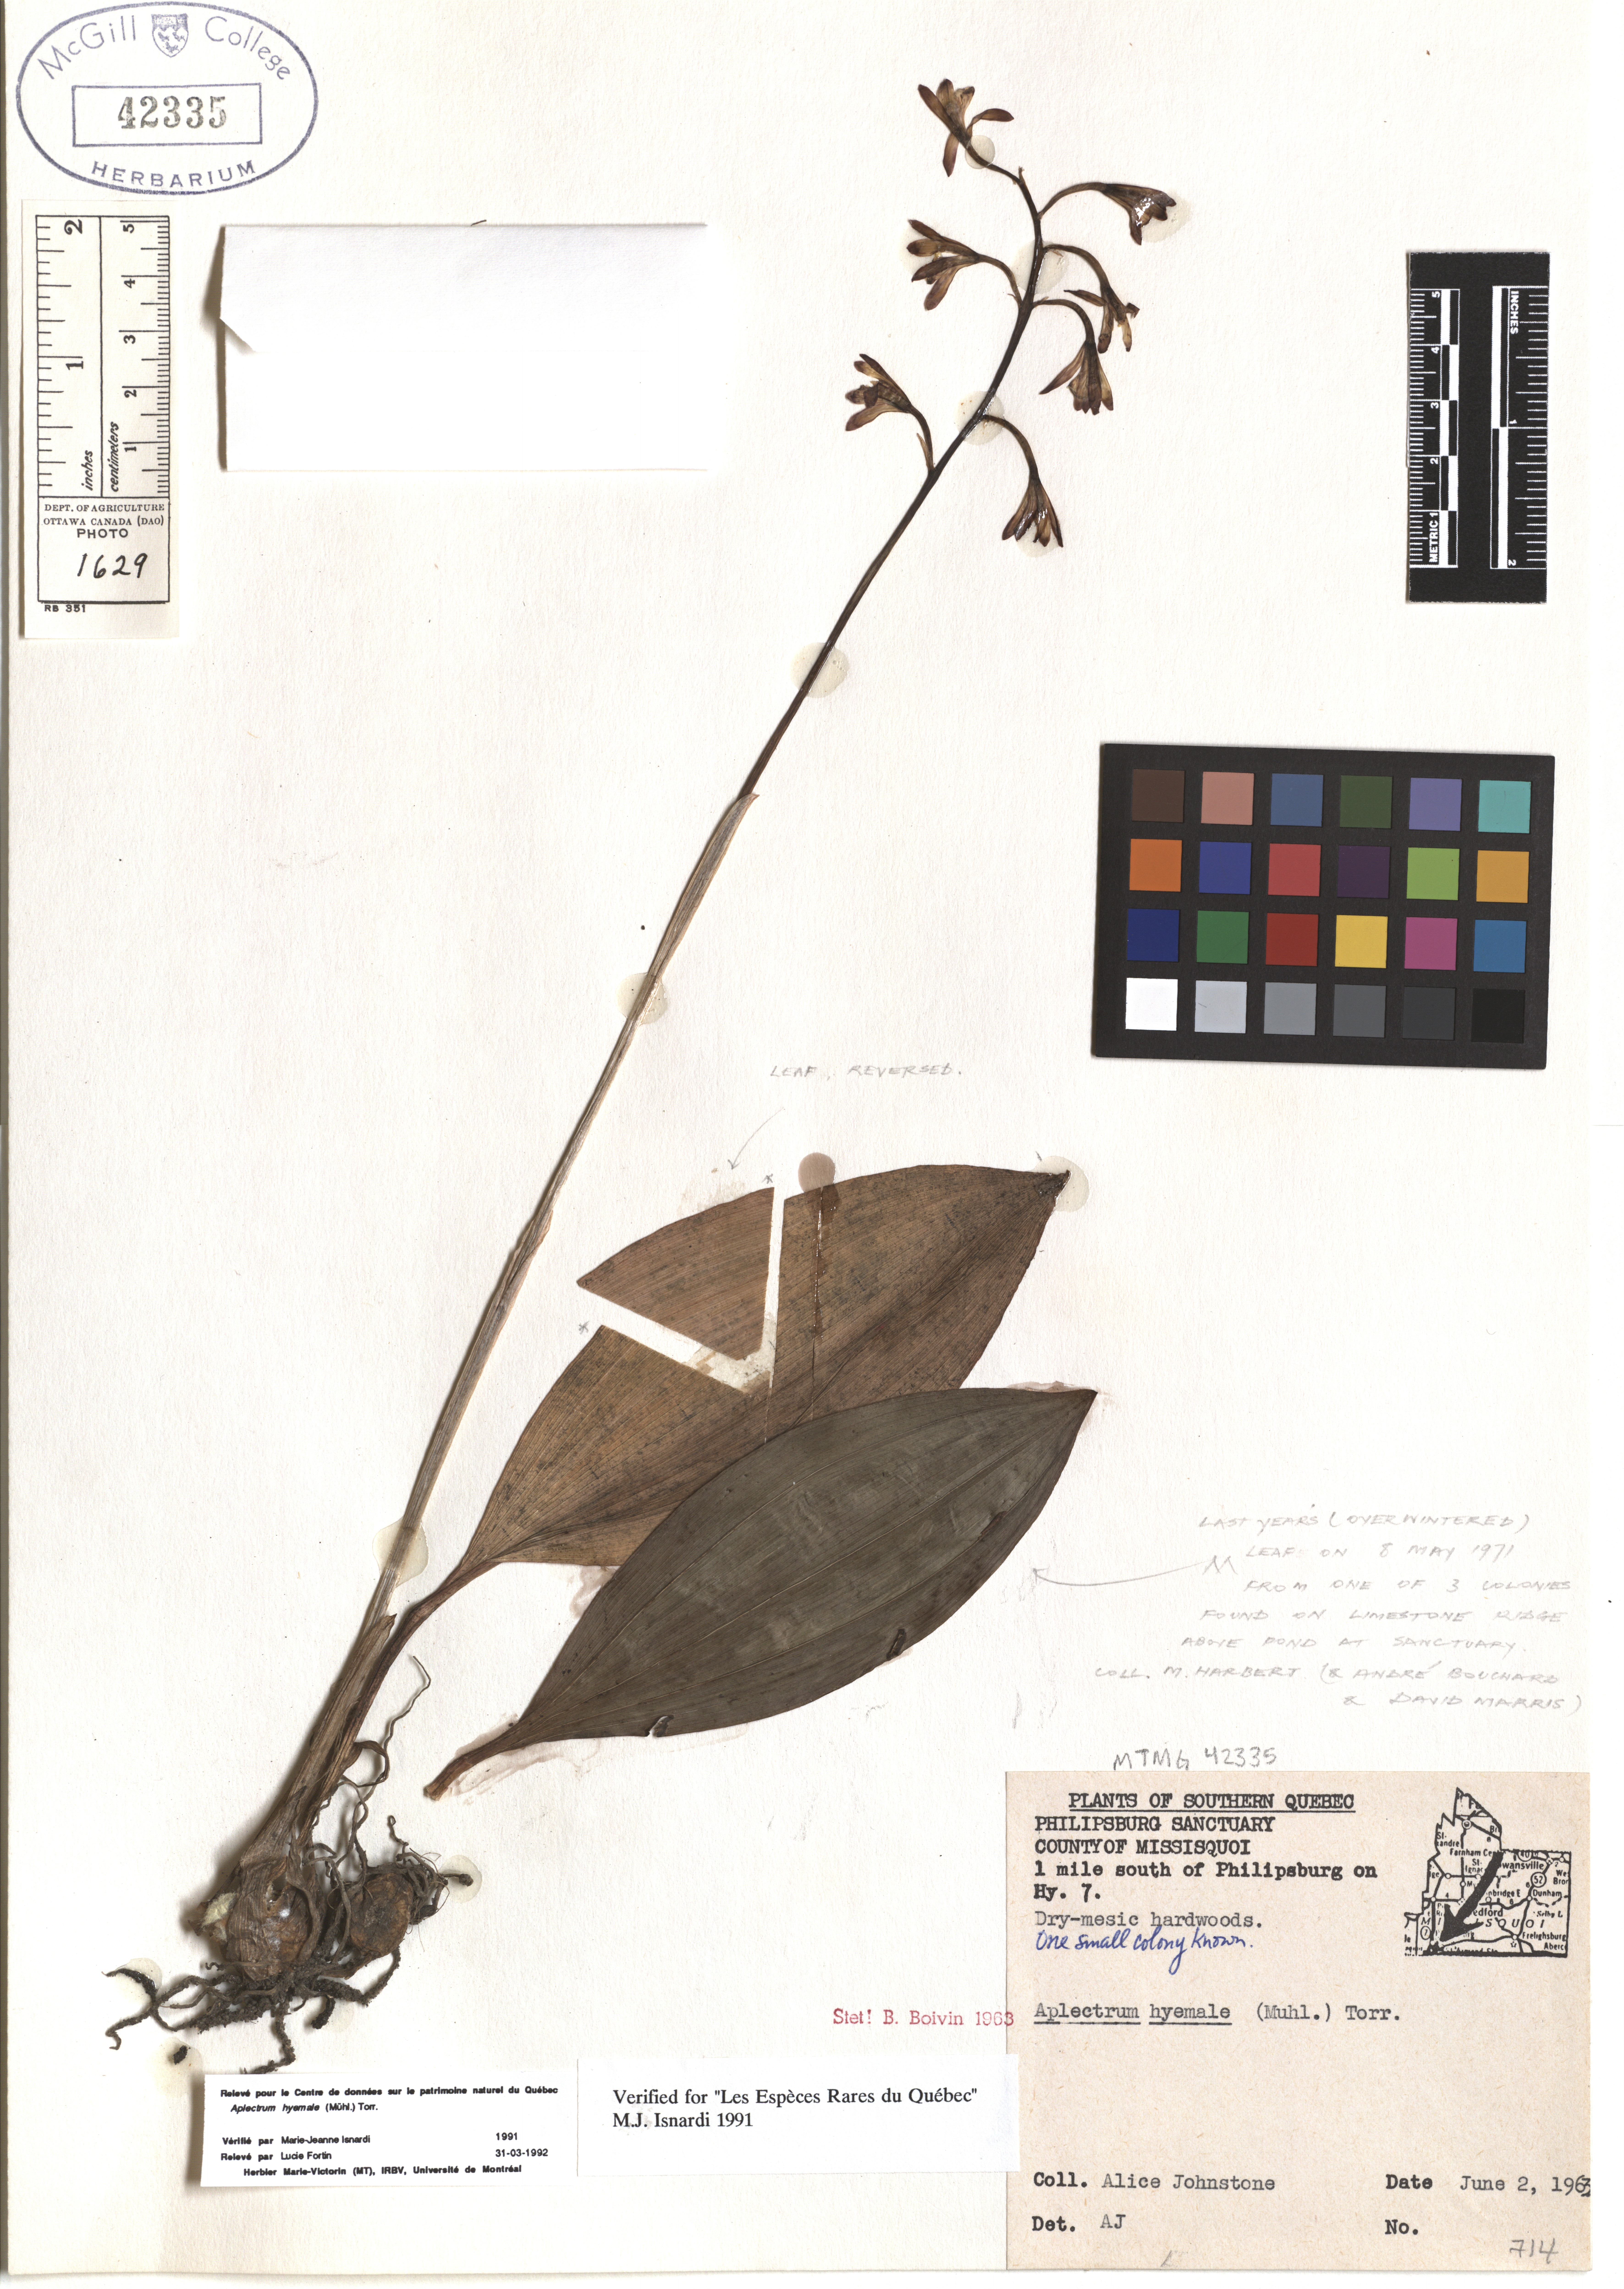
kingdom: Plantae
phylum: Tracheophyta
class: Liliopsida
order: Asparagales
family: Orchidaceae
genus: Aplectrum
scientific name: Aplectrum hyemale
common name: Adam-and-eve
